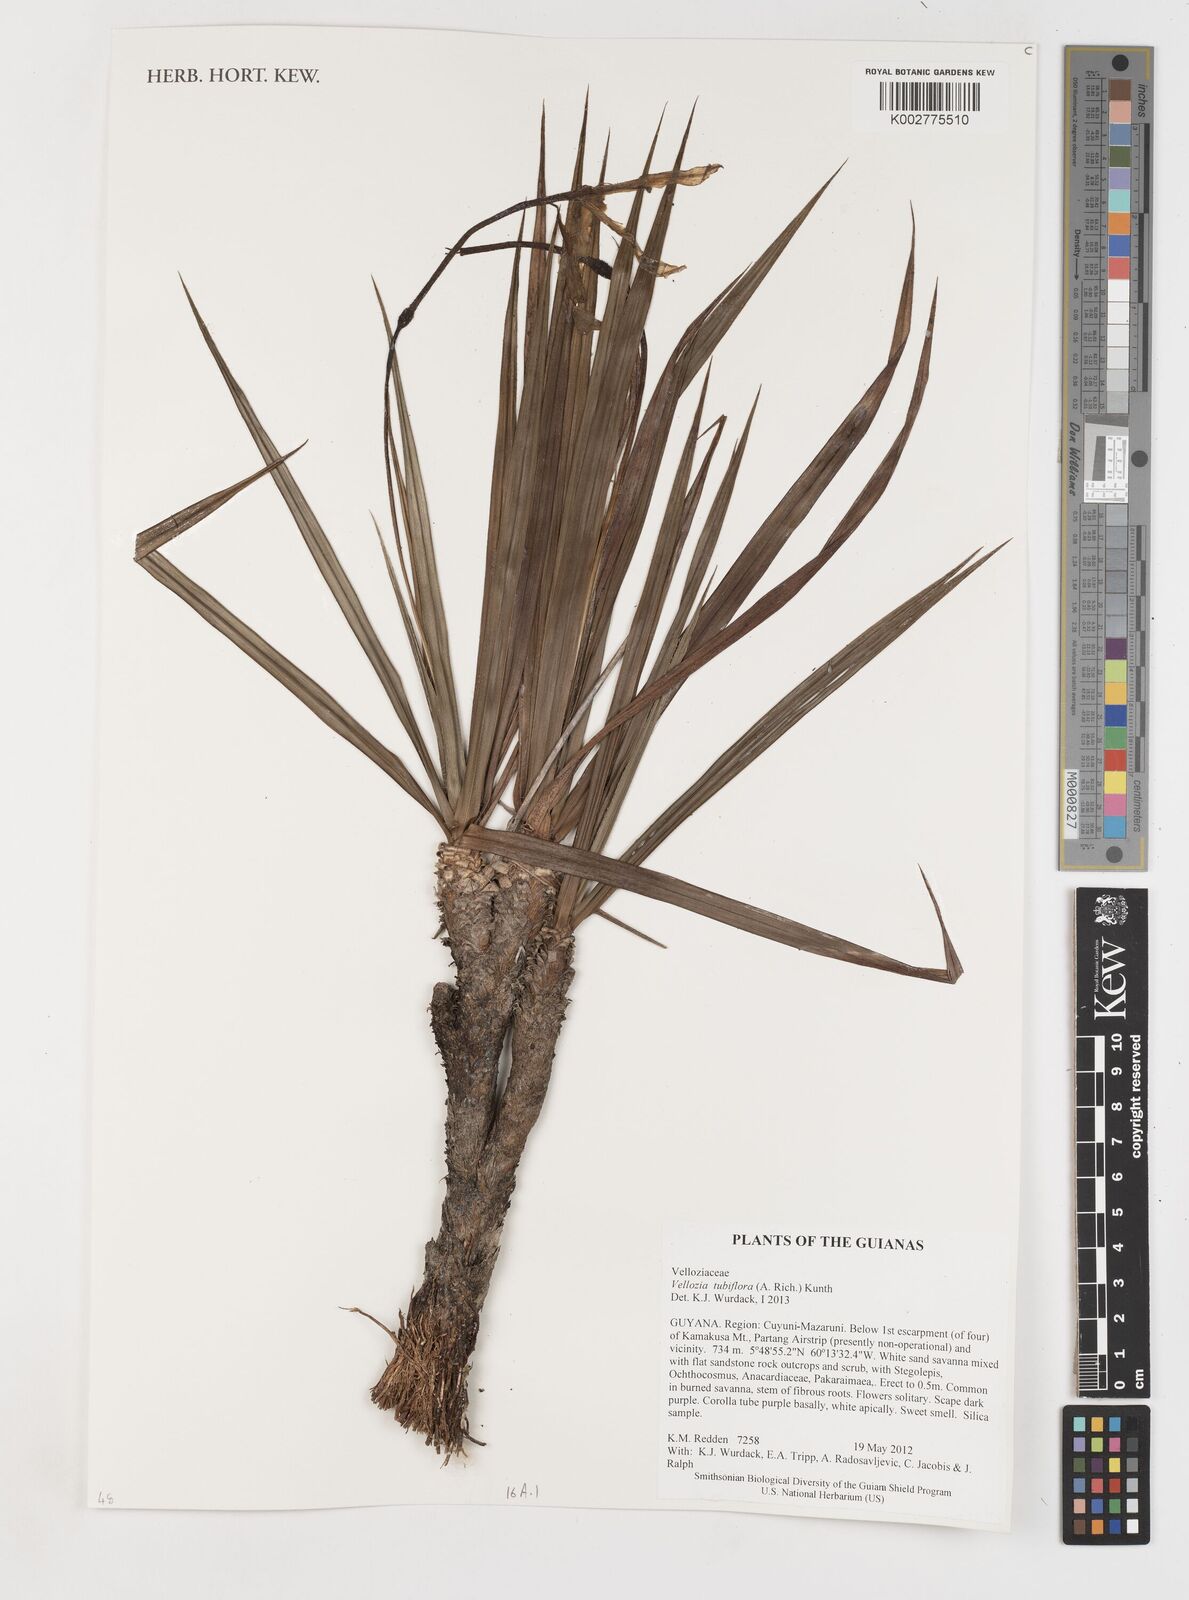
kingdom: Plantae
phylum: Tracheophyta
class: Liliopsida
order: Pandanales
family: Velloziaceae
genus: Vellozia
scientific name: Vellozia tubiflora
